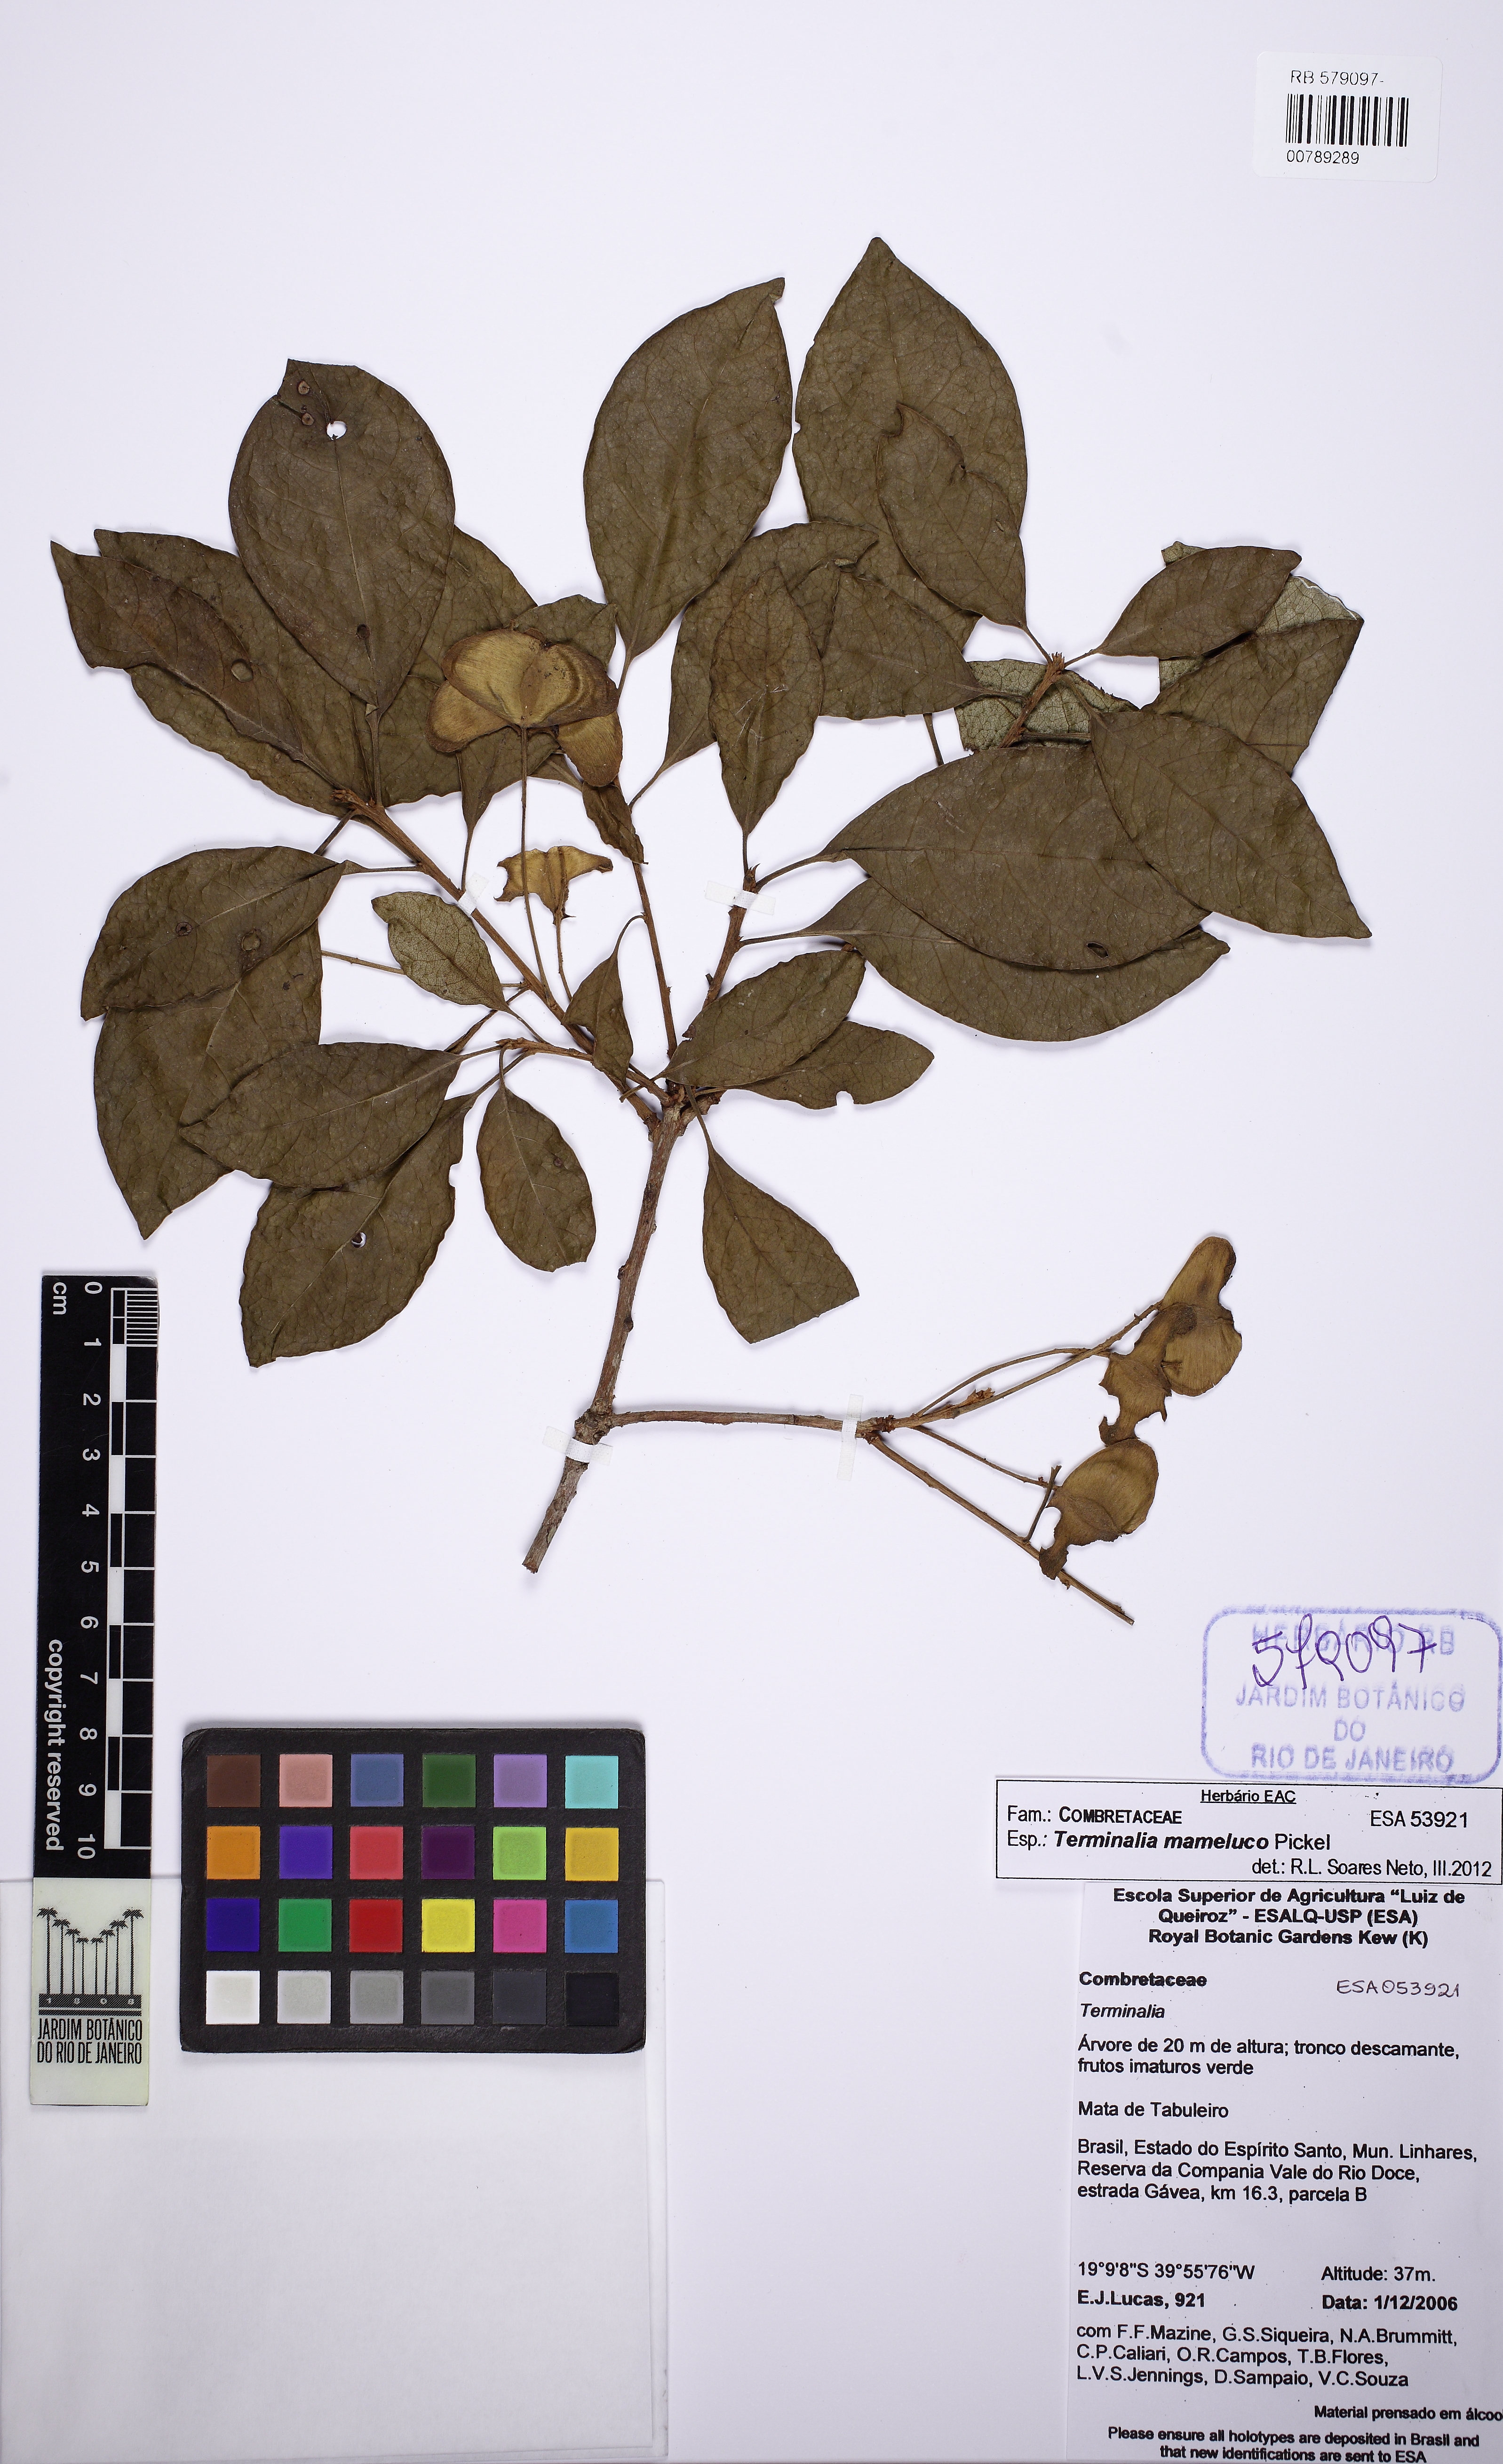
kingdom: Plantae
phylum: Tracheophyta
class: Magnoliopsida
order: Myrtales
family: Combretaceae
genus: Terminalia
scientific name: Terminalia mameluco
